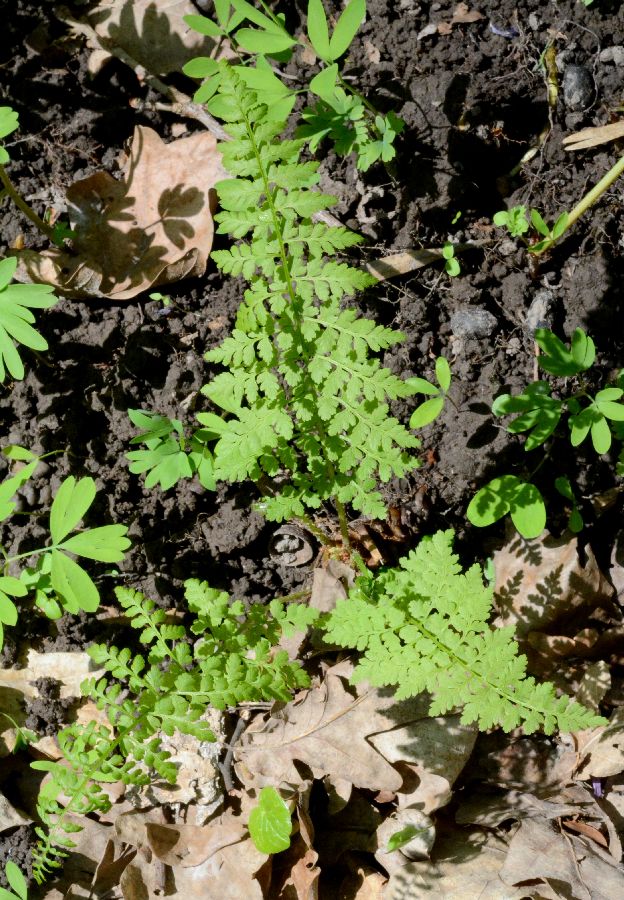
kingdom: Plantae
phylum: Tracheophyta
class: Polypodiopsida
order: Polypodiales
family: Cystopteridaceae
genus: Cystopteris
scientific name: Cystopteris fragilis
